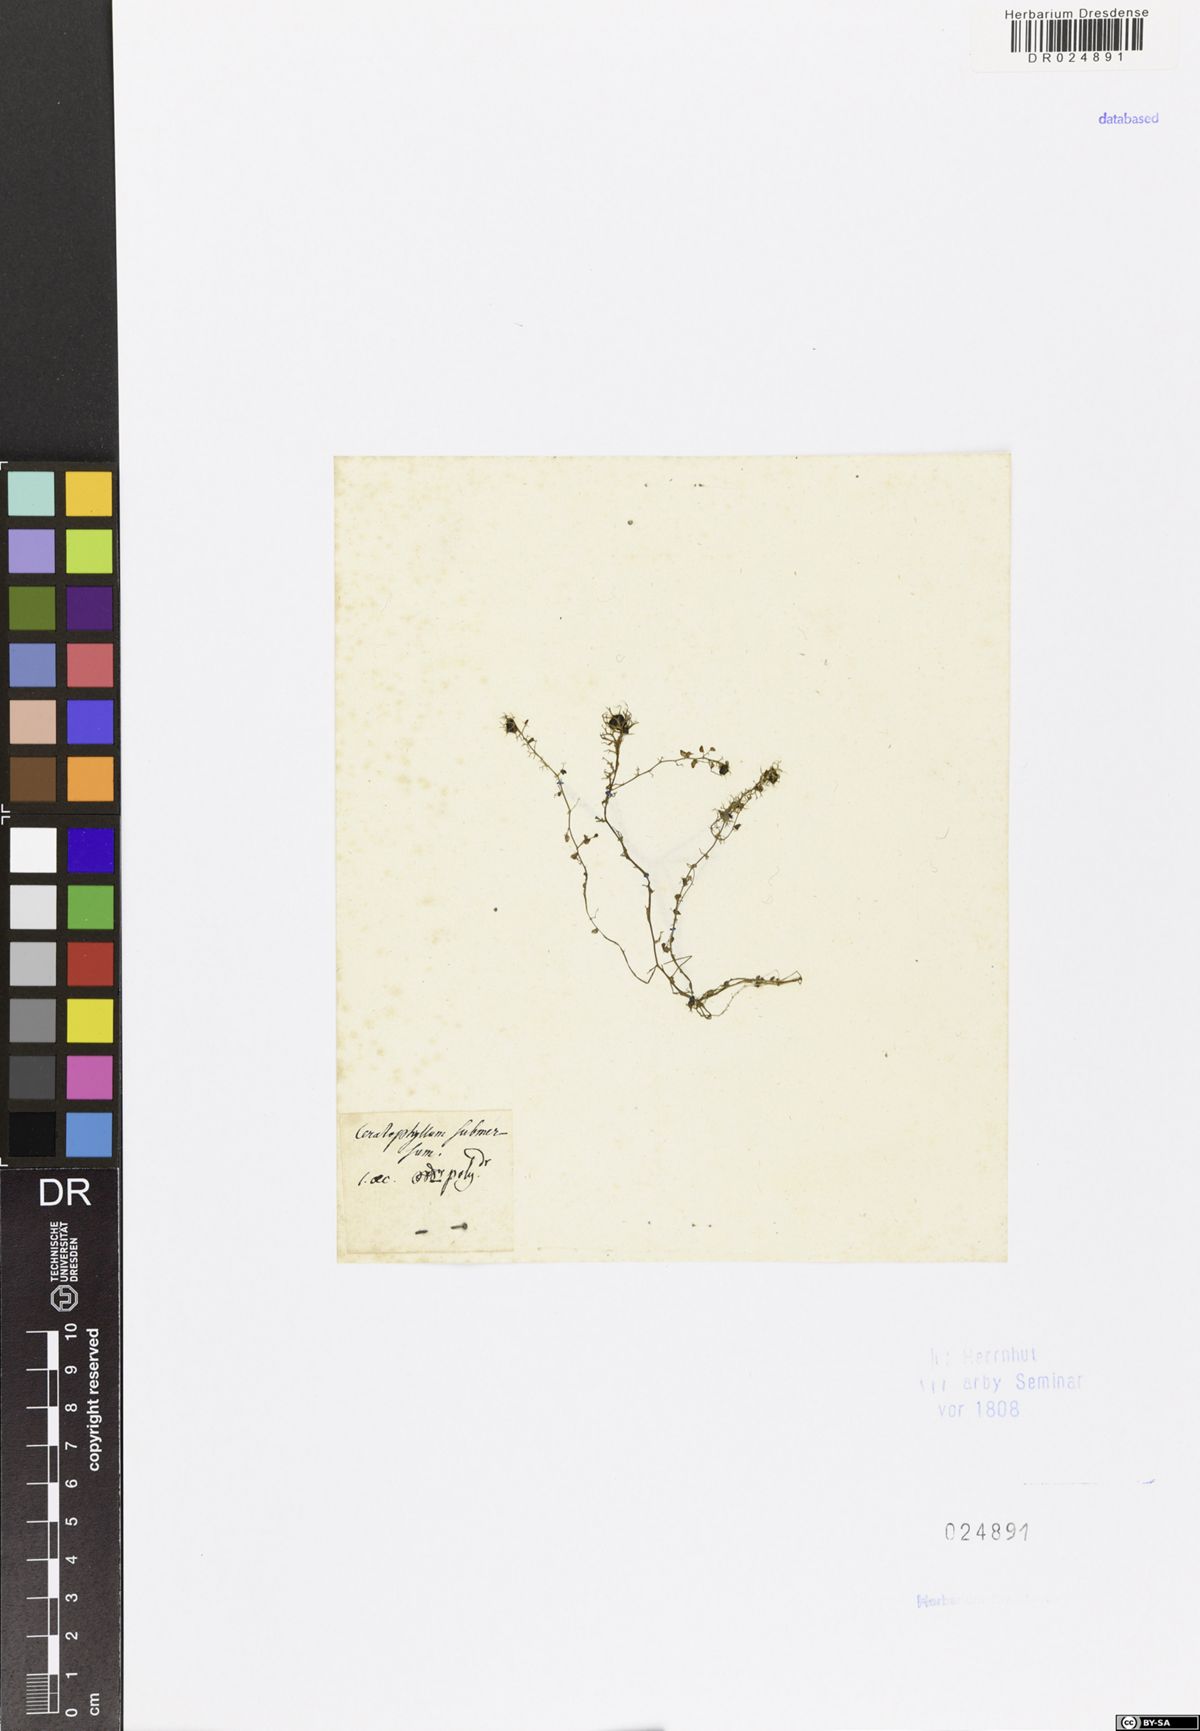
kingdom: Plantae
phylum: Tracheophyta
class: Magnoliopsida
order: Lamiales
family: Lentibulariaceae
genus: Utricularia
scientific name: Utricularia vulgaris
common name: Greater bladderwort
